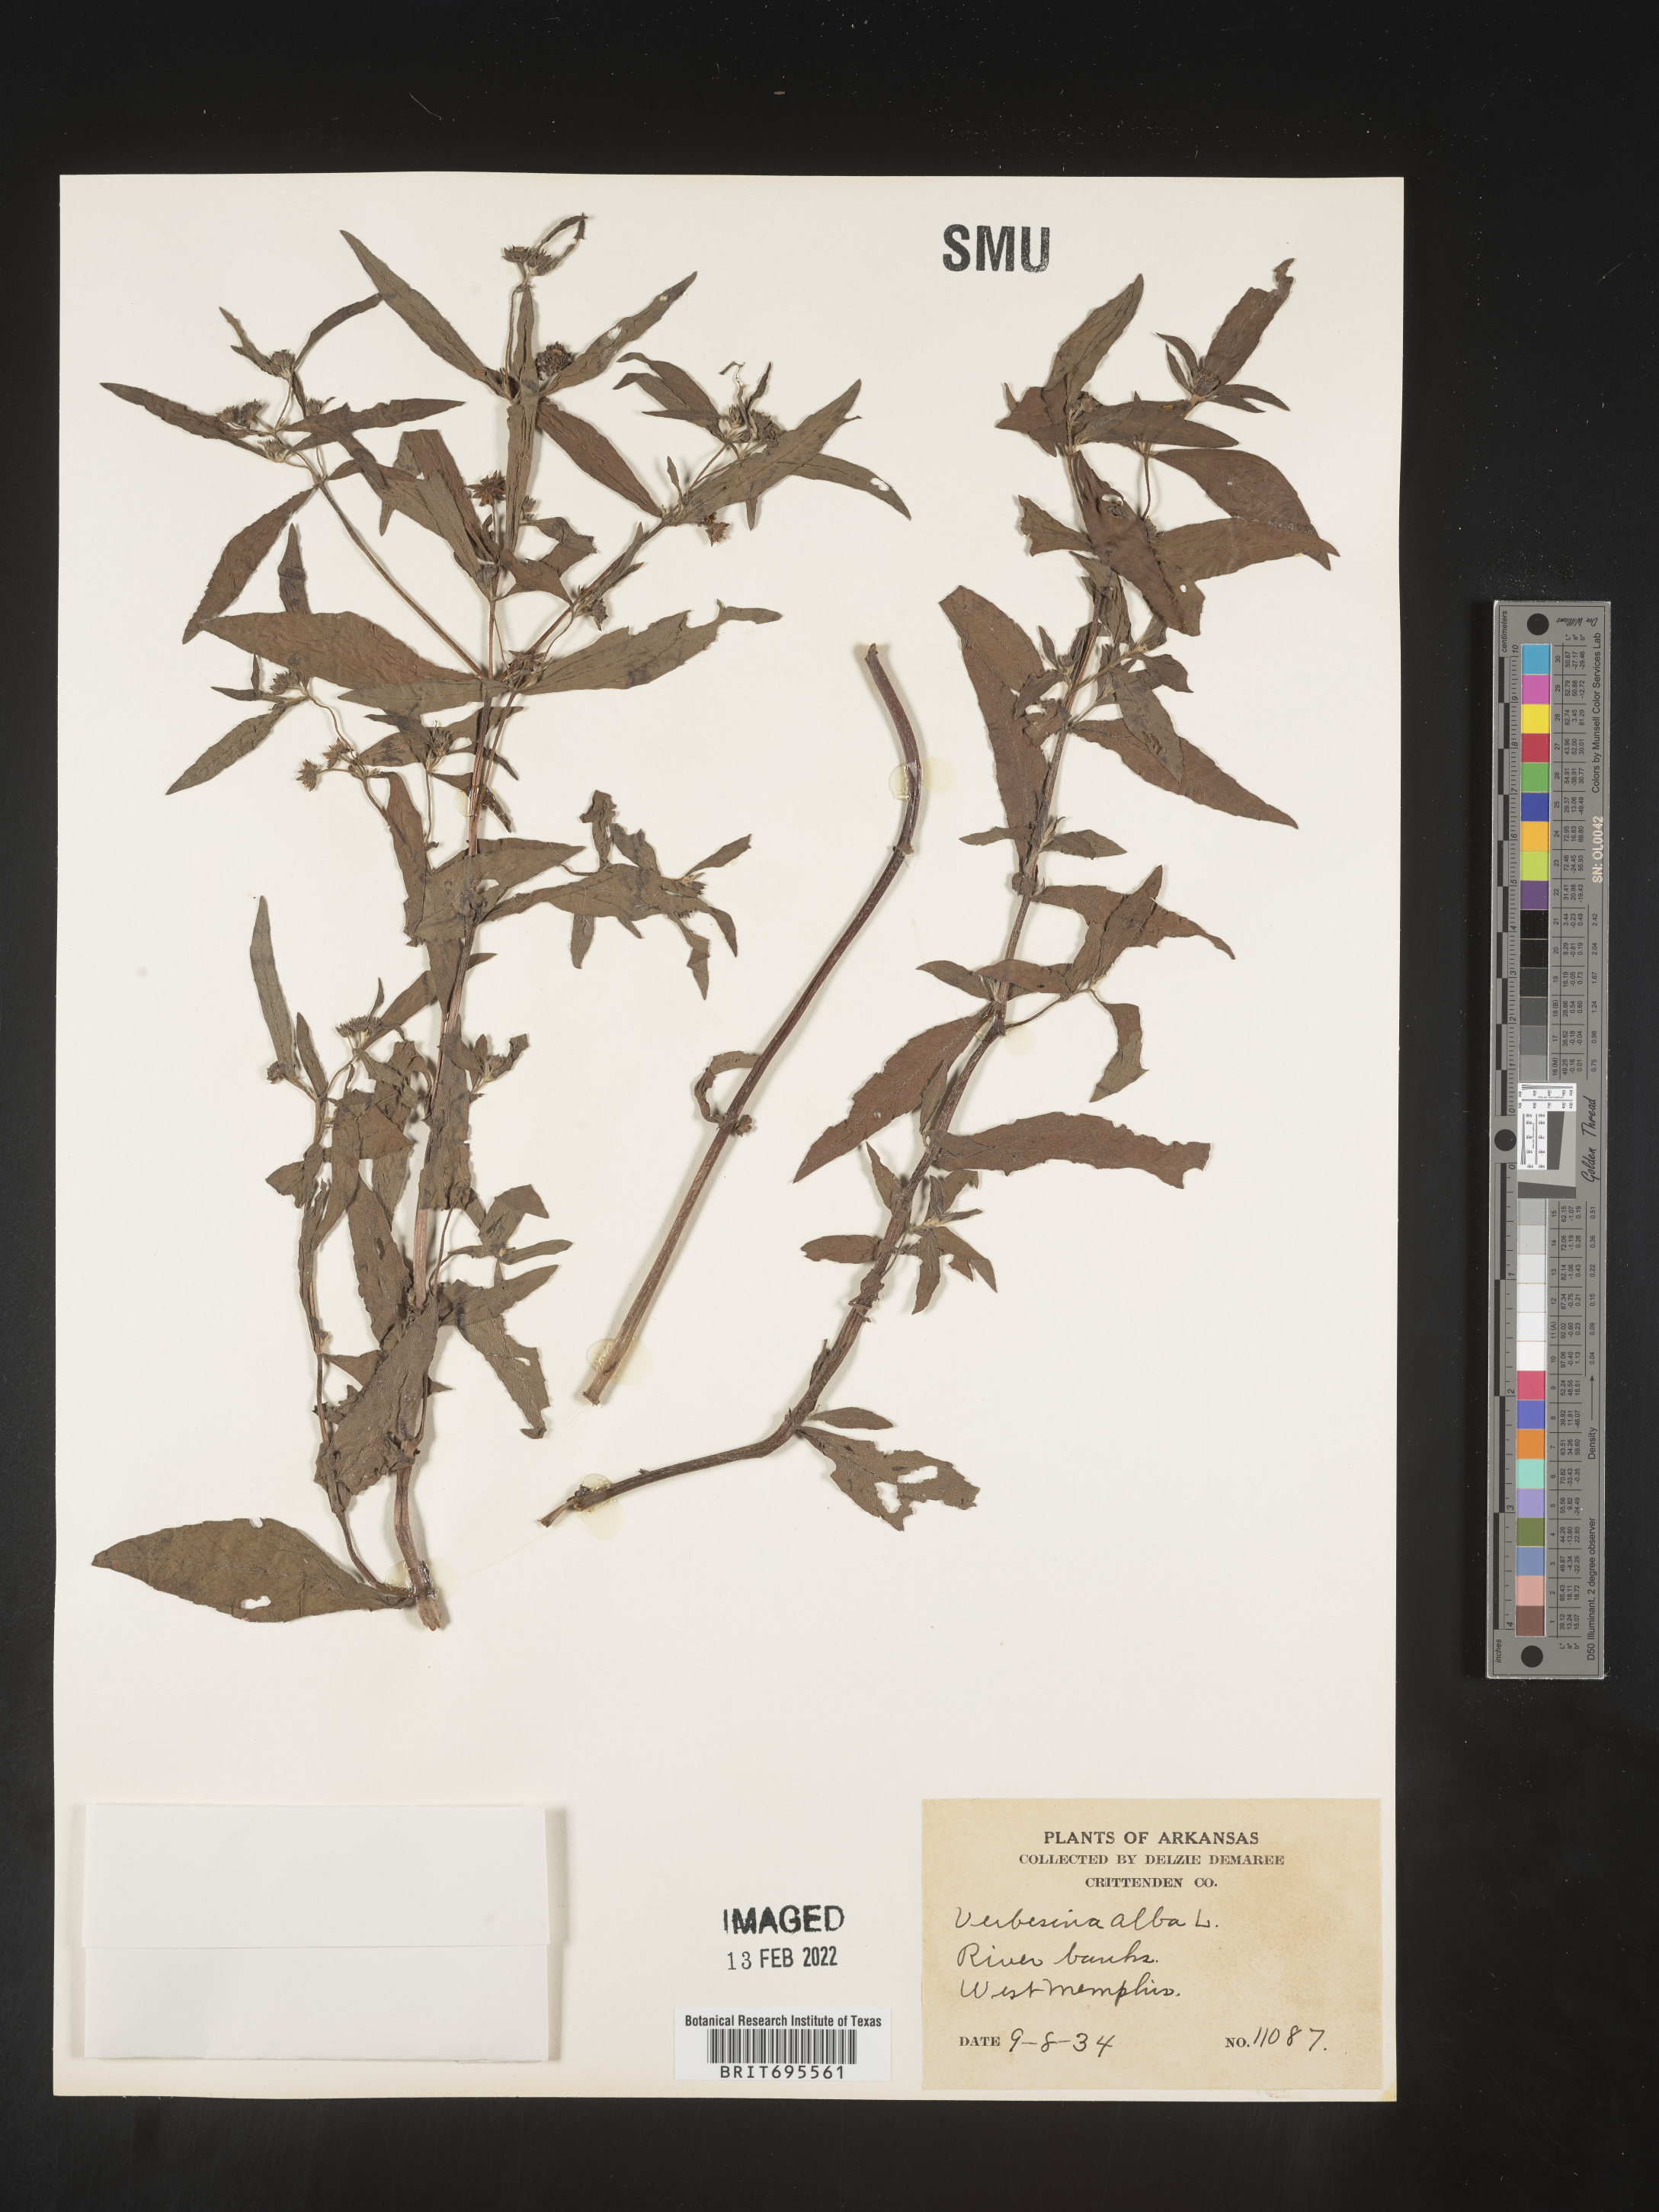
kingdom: Plantae
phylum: Tracheophyta
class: Magnoliopsida
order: Asterales
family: Asteraceae
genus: Eclipta
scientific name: Eclipta alba
